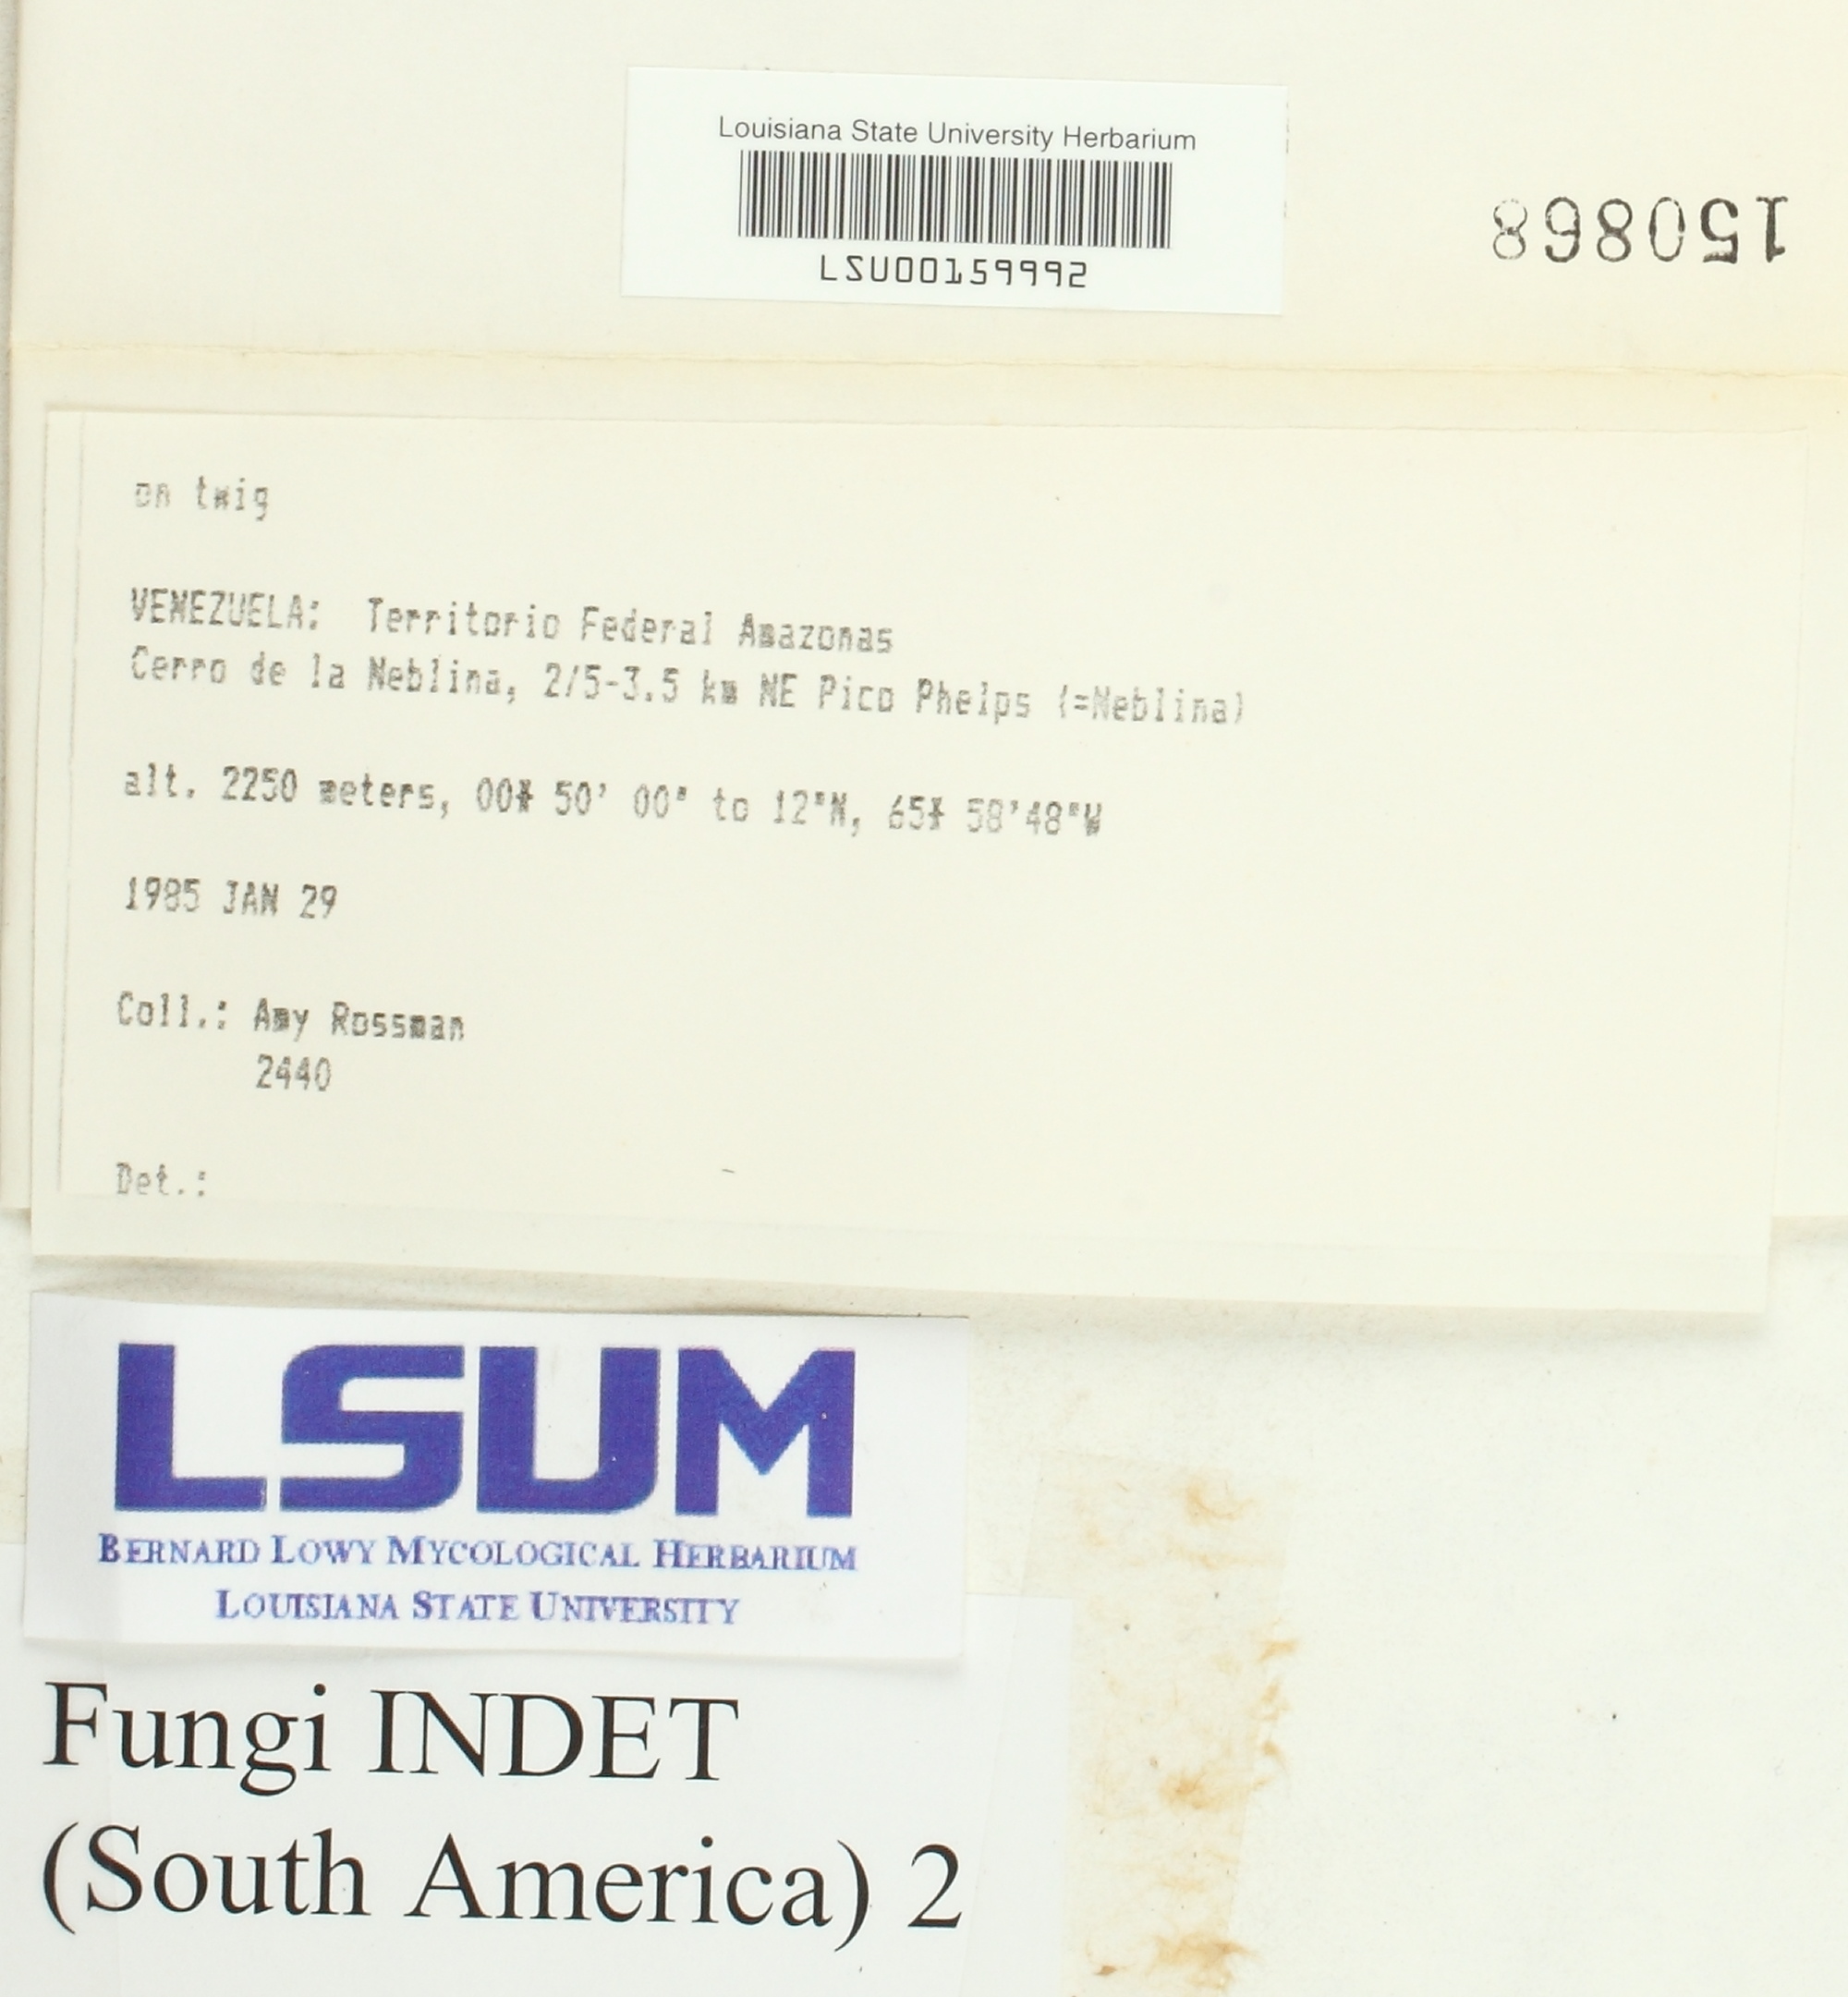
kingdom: Fungi
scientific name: Fungi
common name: Fungi
